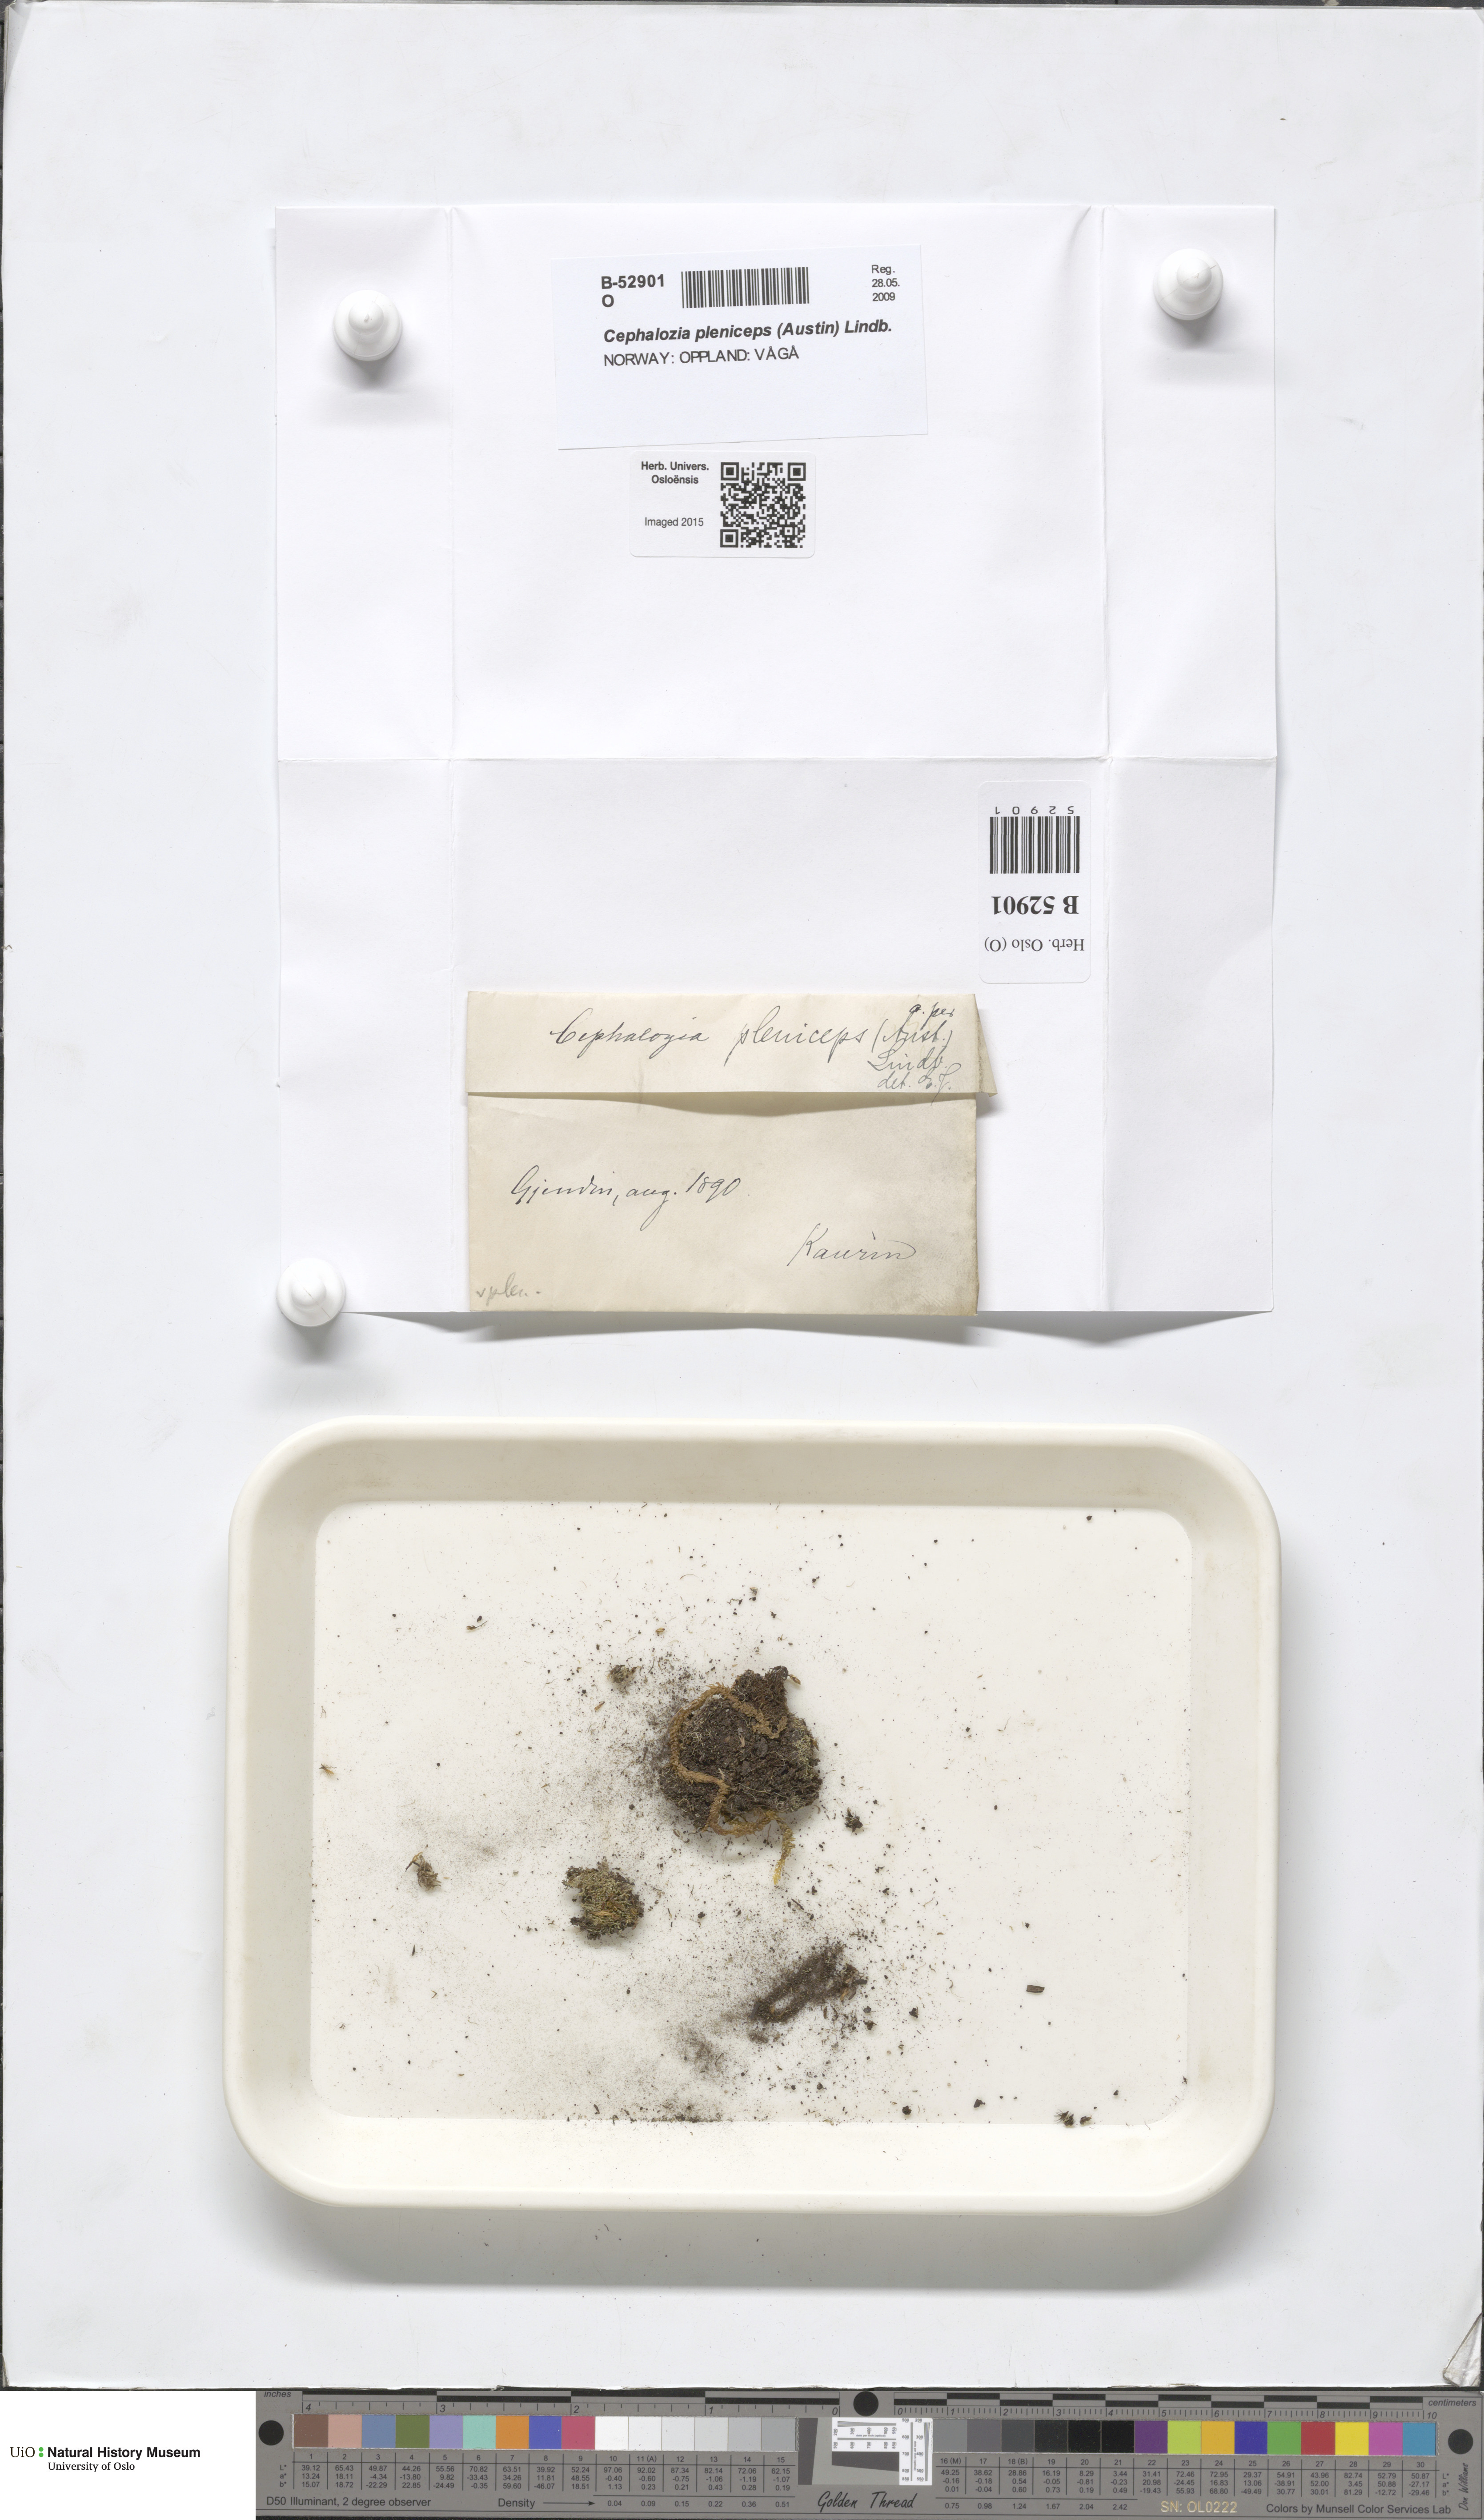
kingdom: Plantae
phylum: Marchantiophyta
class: Jungermanniopsida
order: Jungermanniales
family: Cephaloziaceae
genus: Fuscocephaloziopsis
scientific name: Fuscocephaloziopsis pleniceps
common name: Blunt pincerwort
